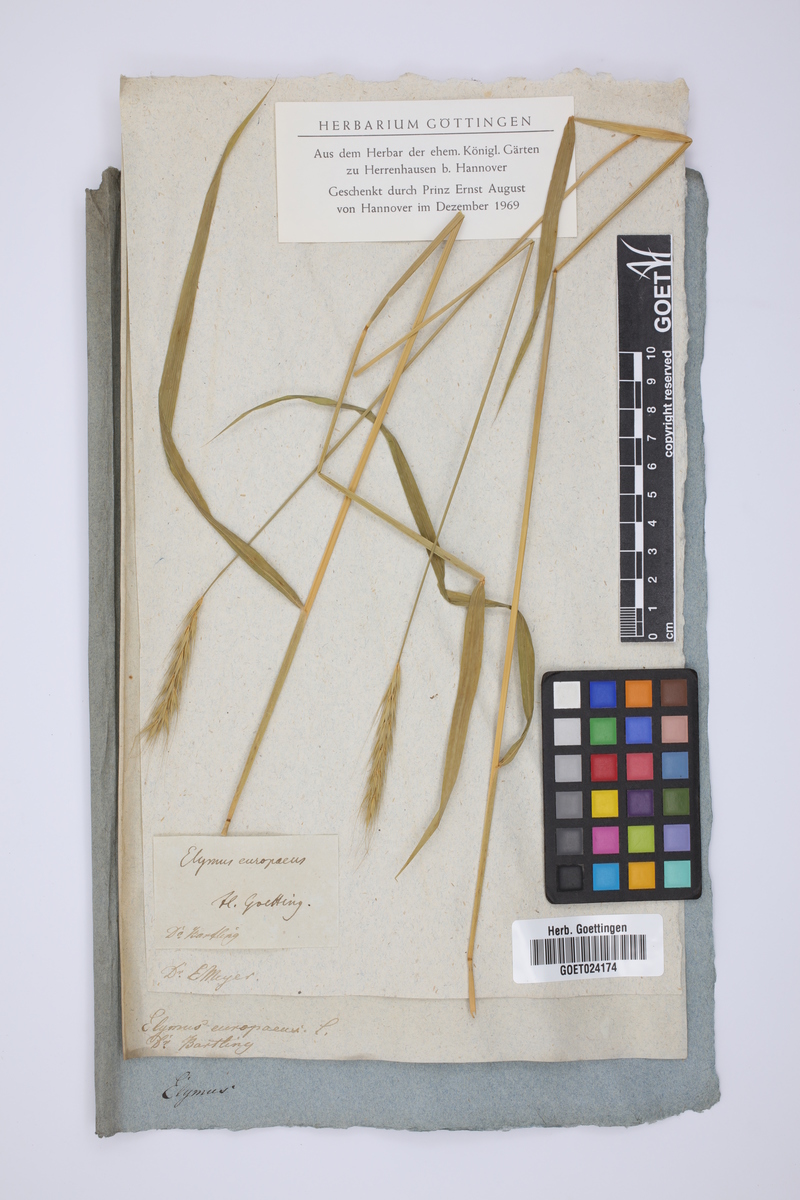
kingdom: Plantae
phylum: Tracheophyta
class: Liliopsida
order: Poales
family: Poaceae
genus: Hordelymus
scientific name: Hordelymus europaeus
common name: Wood-barley
